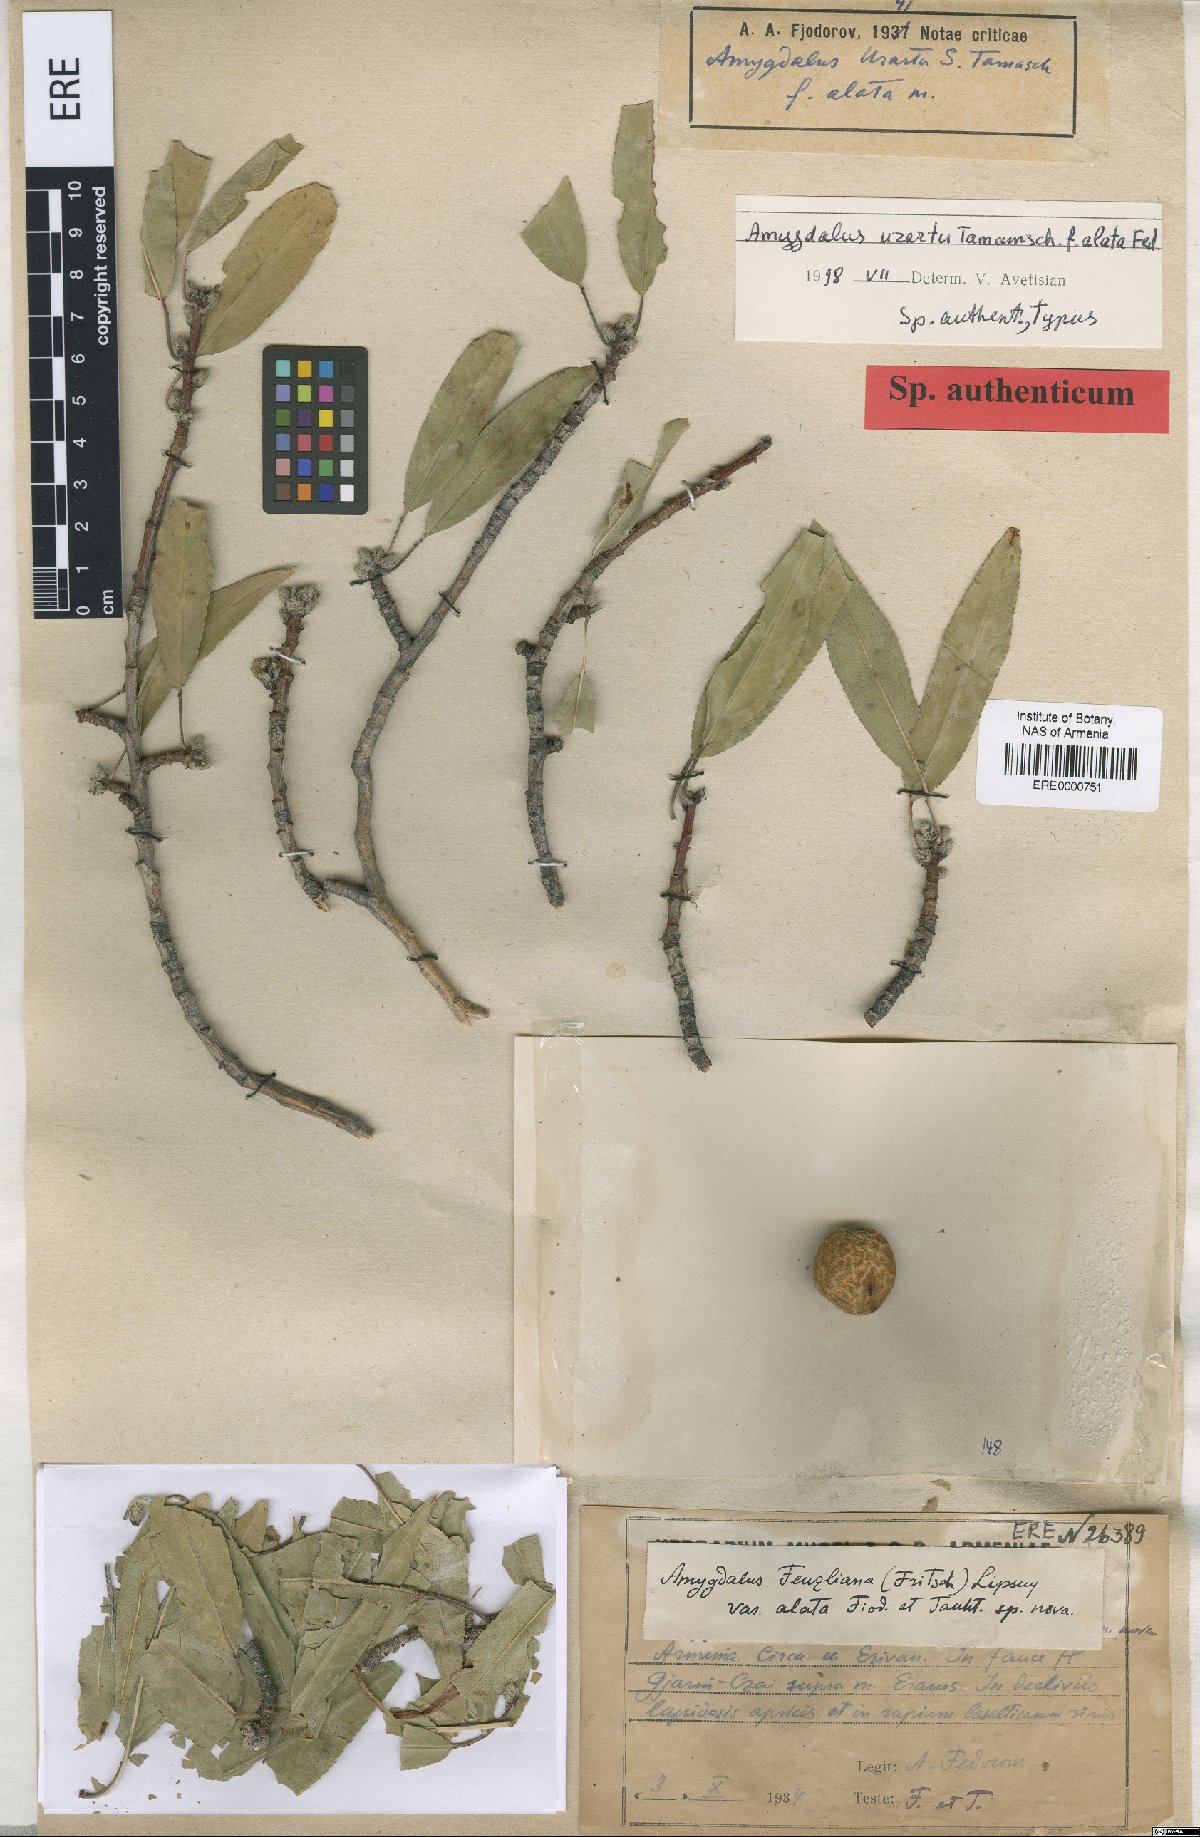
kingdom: Plantae
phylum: Tracheophyta
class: Magnoliopsida
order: Rosales
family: Rosaceae
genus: Prunus
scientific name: Prunus urartu
